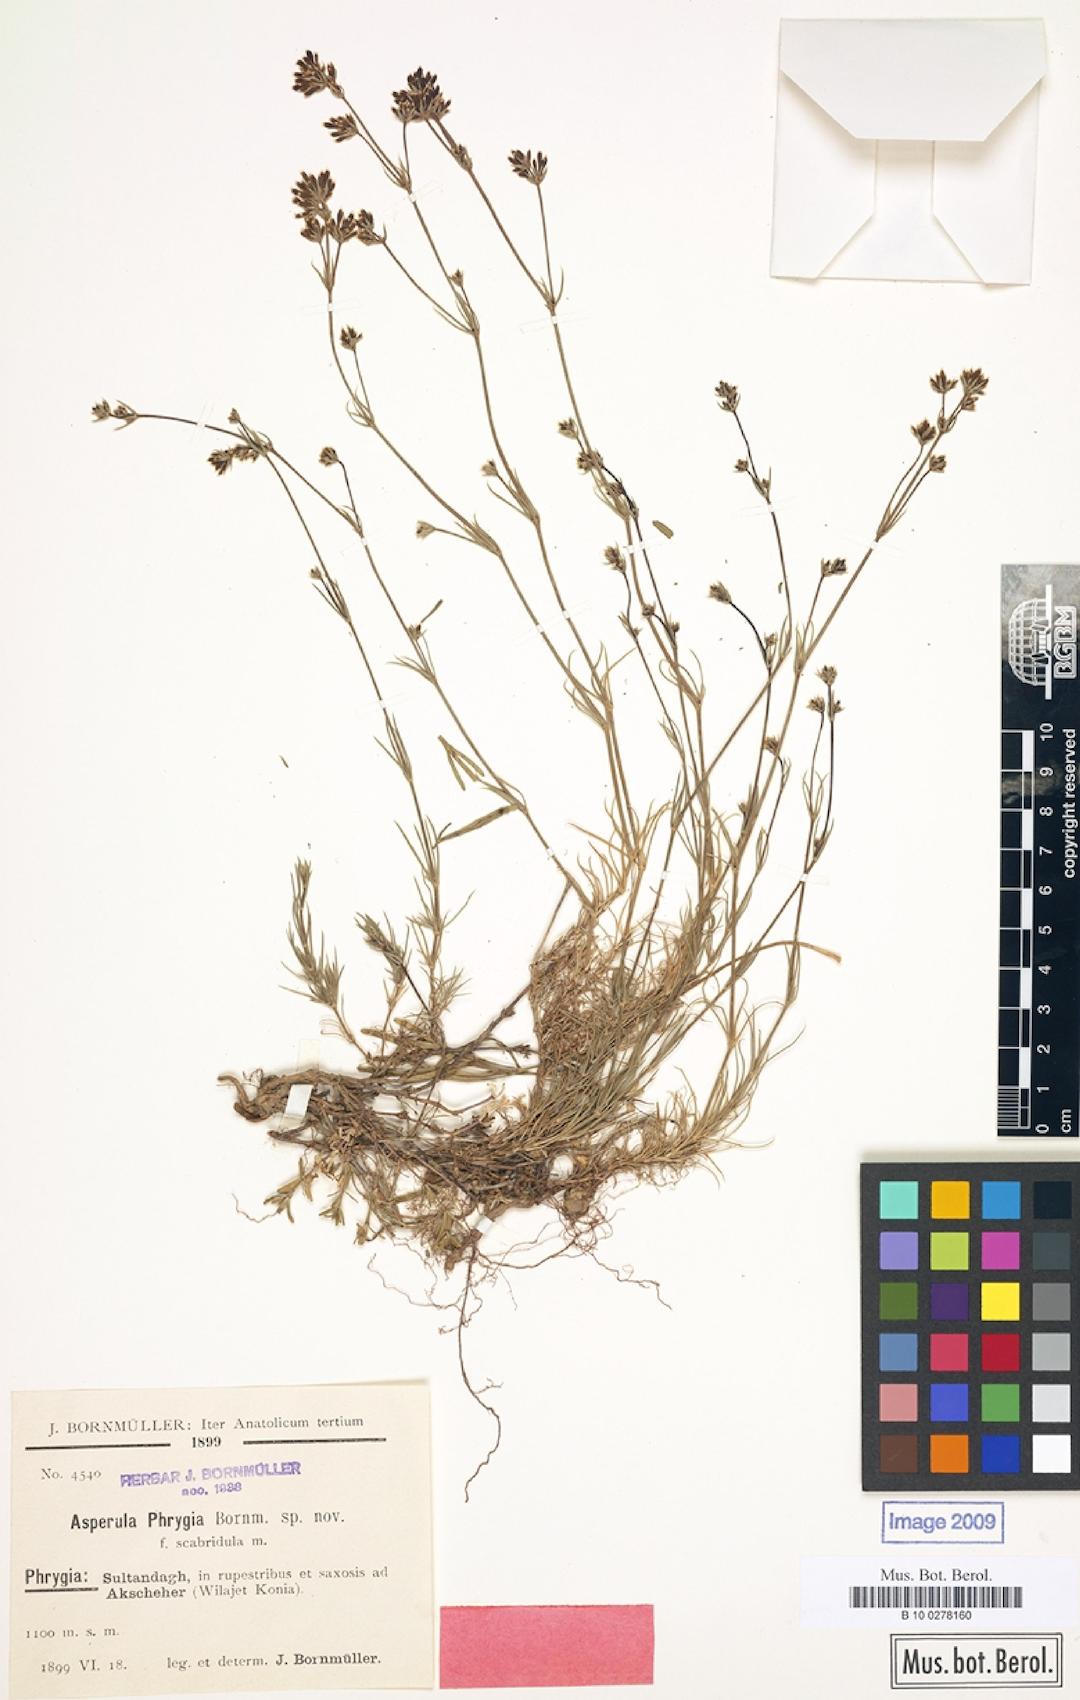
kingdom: Plantae
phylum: Tracheophyta
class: Magnoliopsida
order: Gentianales
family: Rubiaceae
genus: Cynanchica
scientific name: Cynanchica lilaciflora
